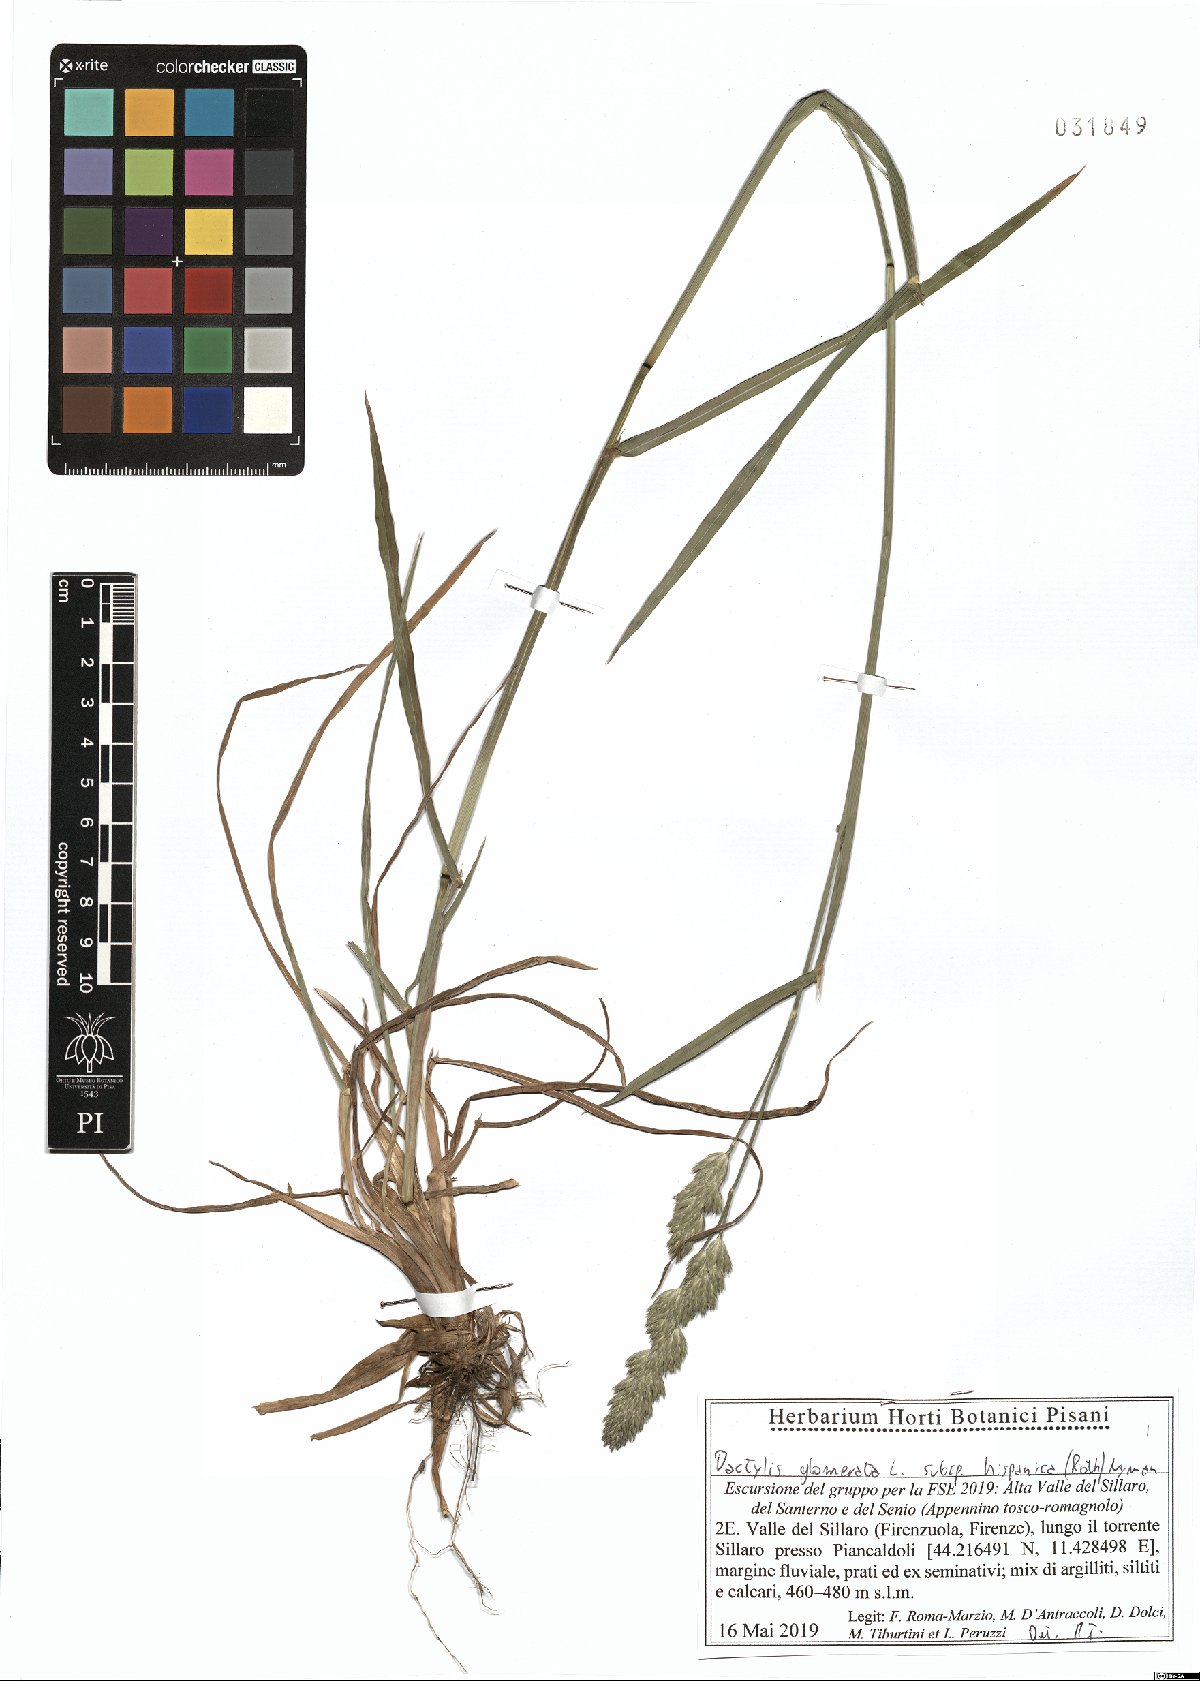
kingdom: Plantae
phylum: Tracheophyta
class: Liliopsida
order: Poales
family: Poaceae
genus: Dactylis
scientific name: Dactylis glomerata
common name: Orchardgrass
